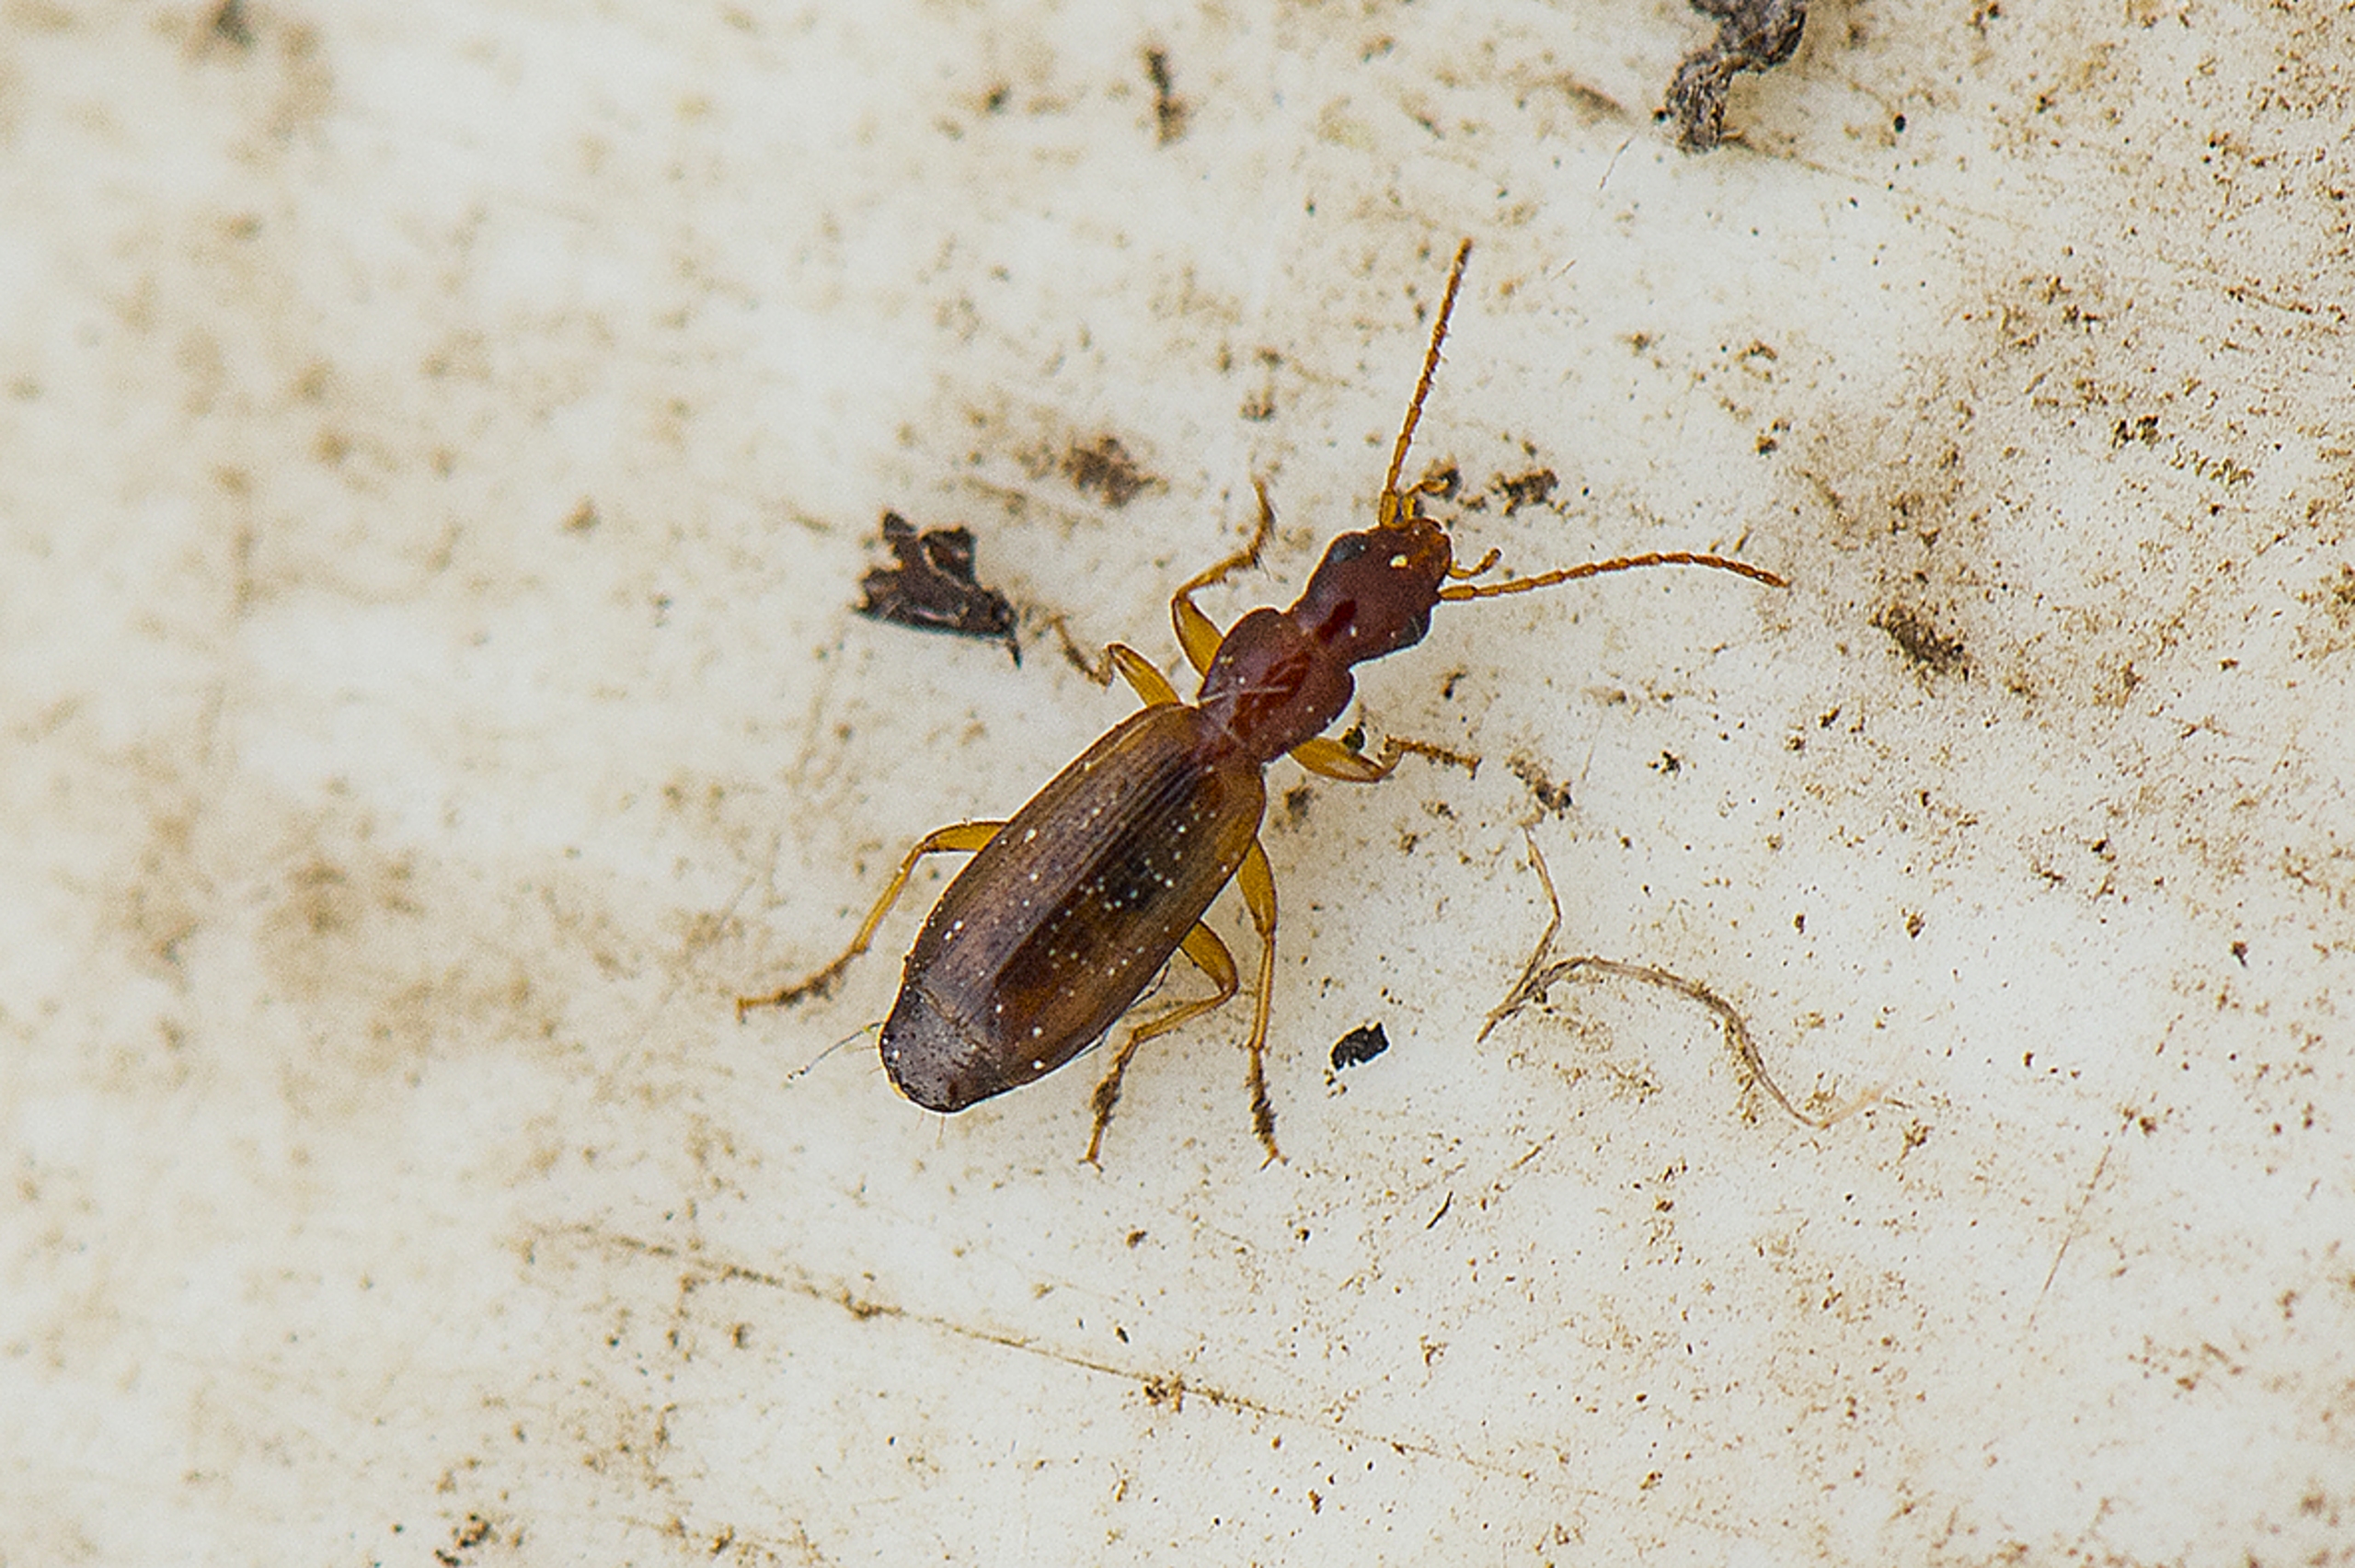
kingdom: Animalia
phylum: Arthropoda
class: Insecta
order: Coleoptera
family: Carabidae
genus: Paradromius
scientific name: Paradromius linearis
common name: Smal sivløber
